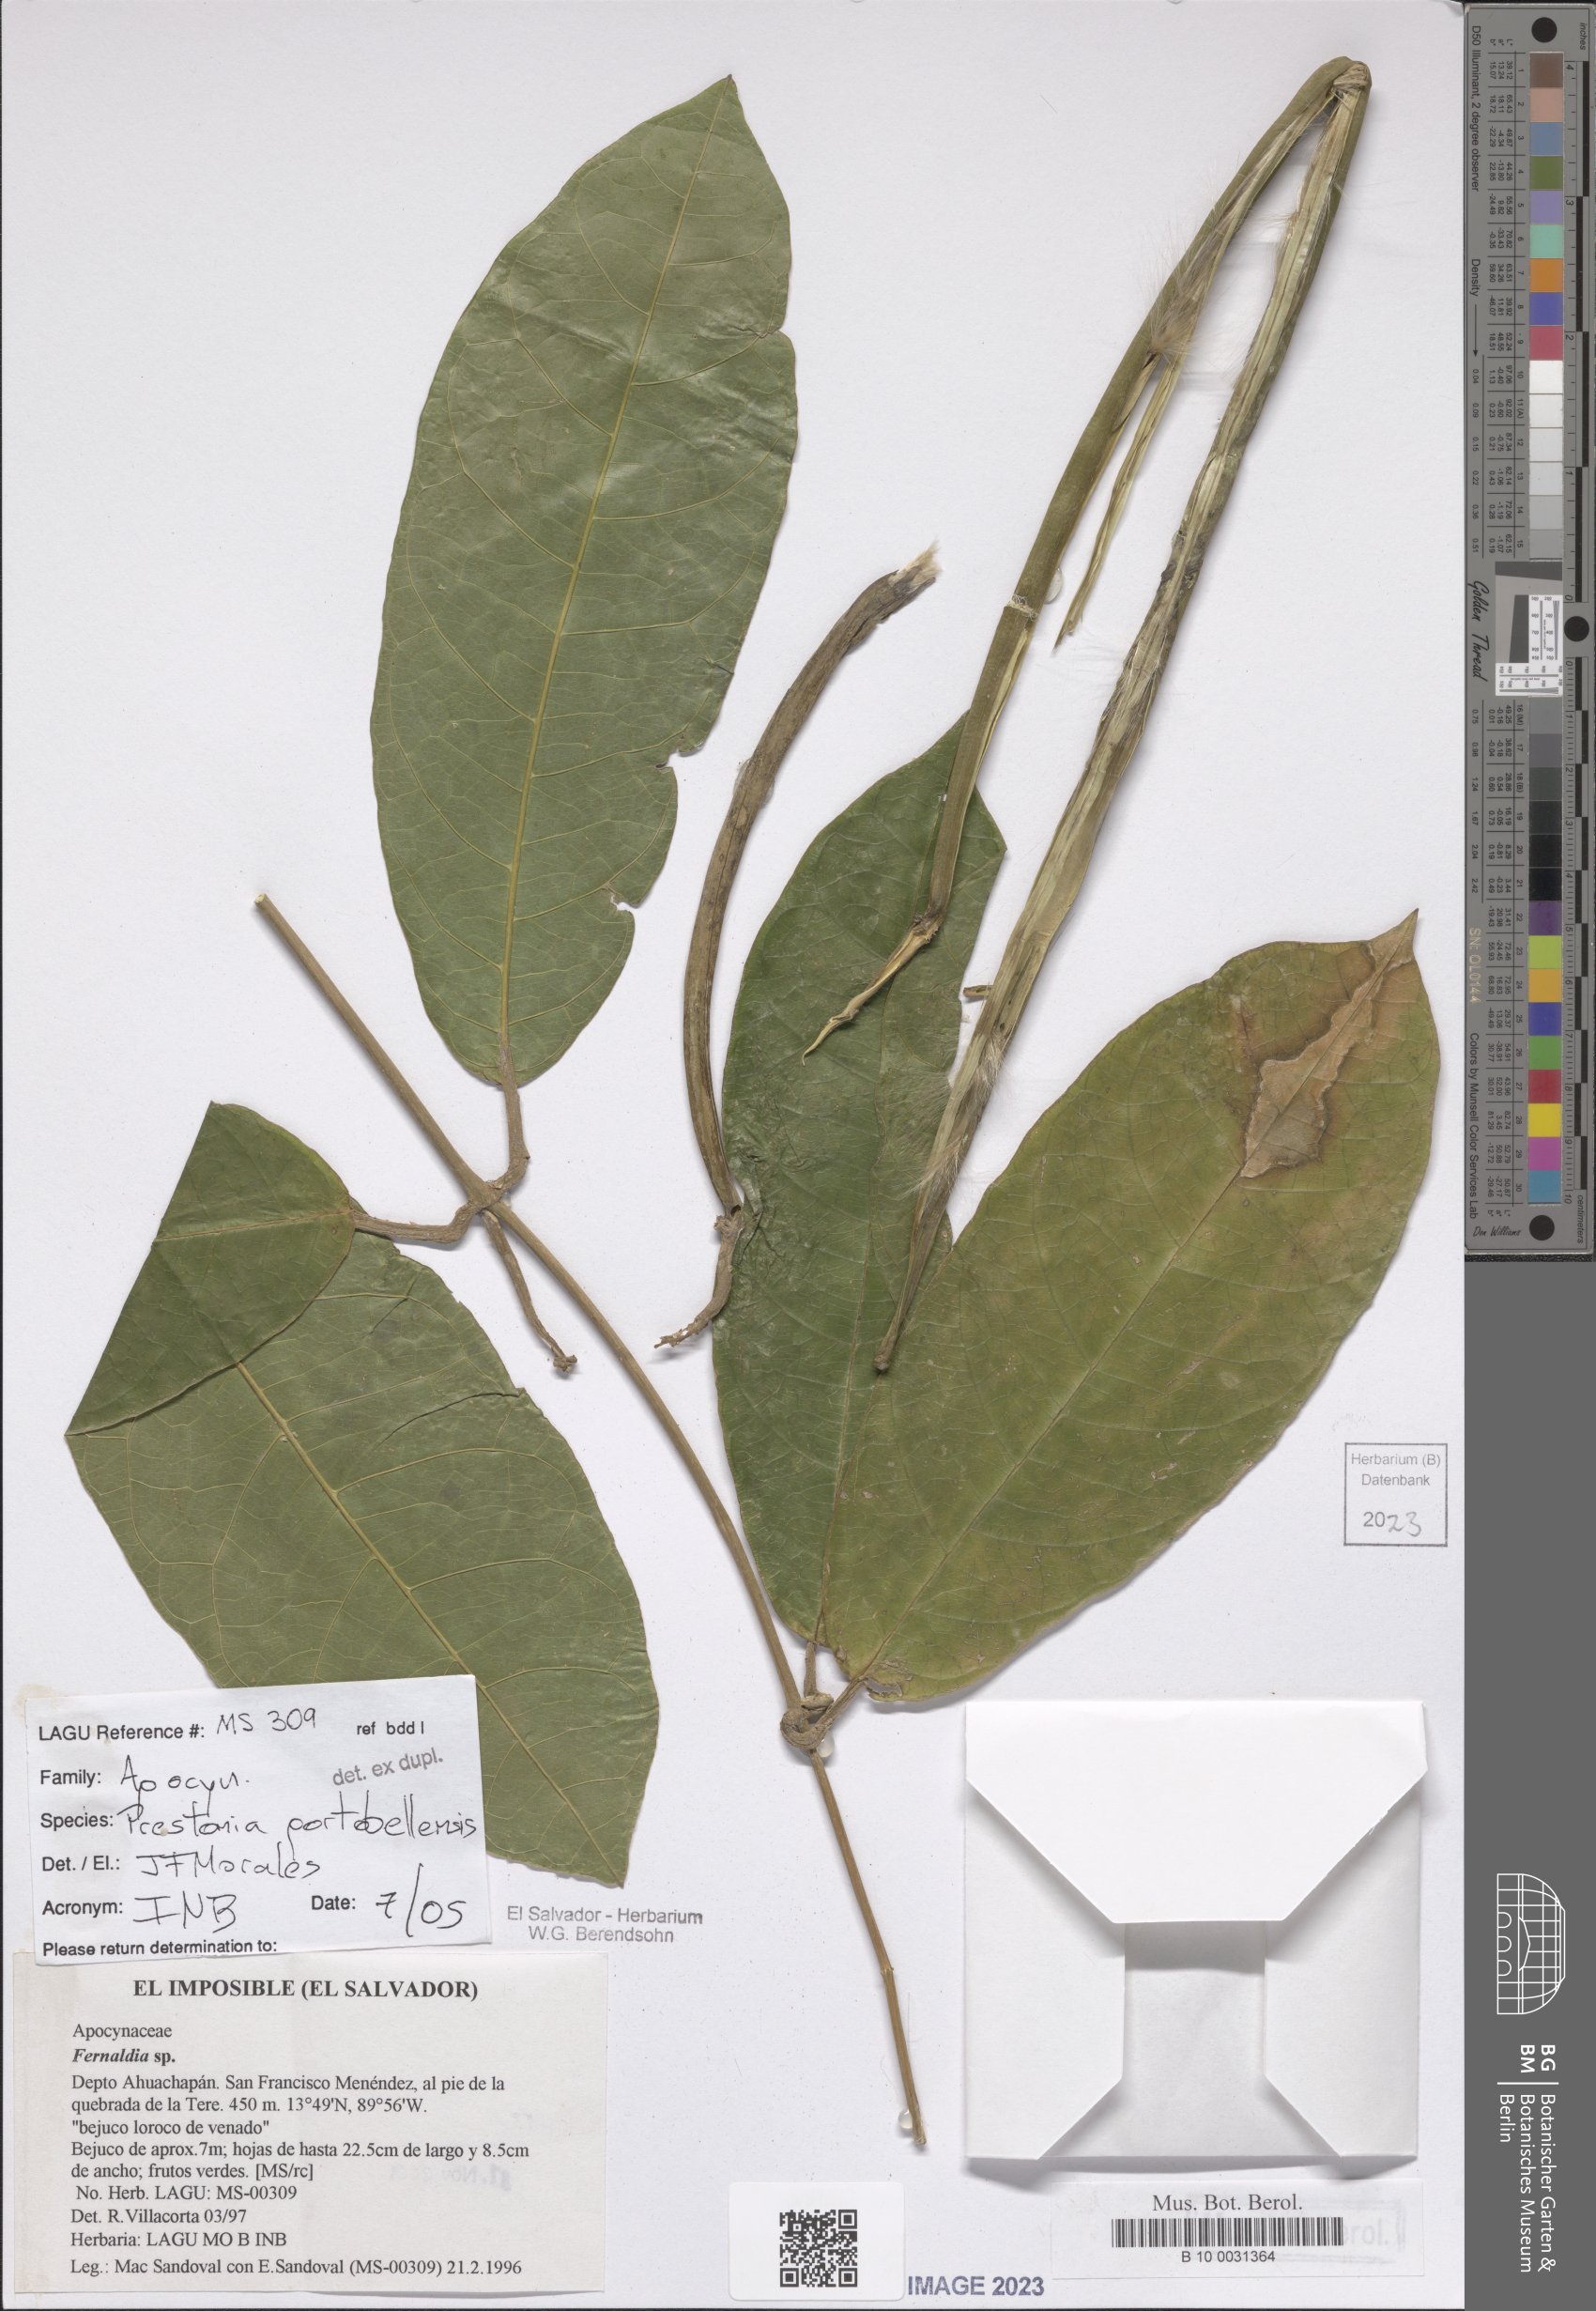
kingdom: Plantae
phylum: Tracheophyta
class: Magnoliopsida
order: Gentianales
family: Apocynaceae
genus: Prestonia
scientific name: Prestonia portobellensis
